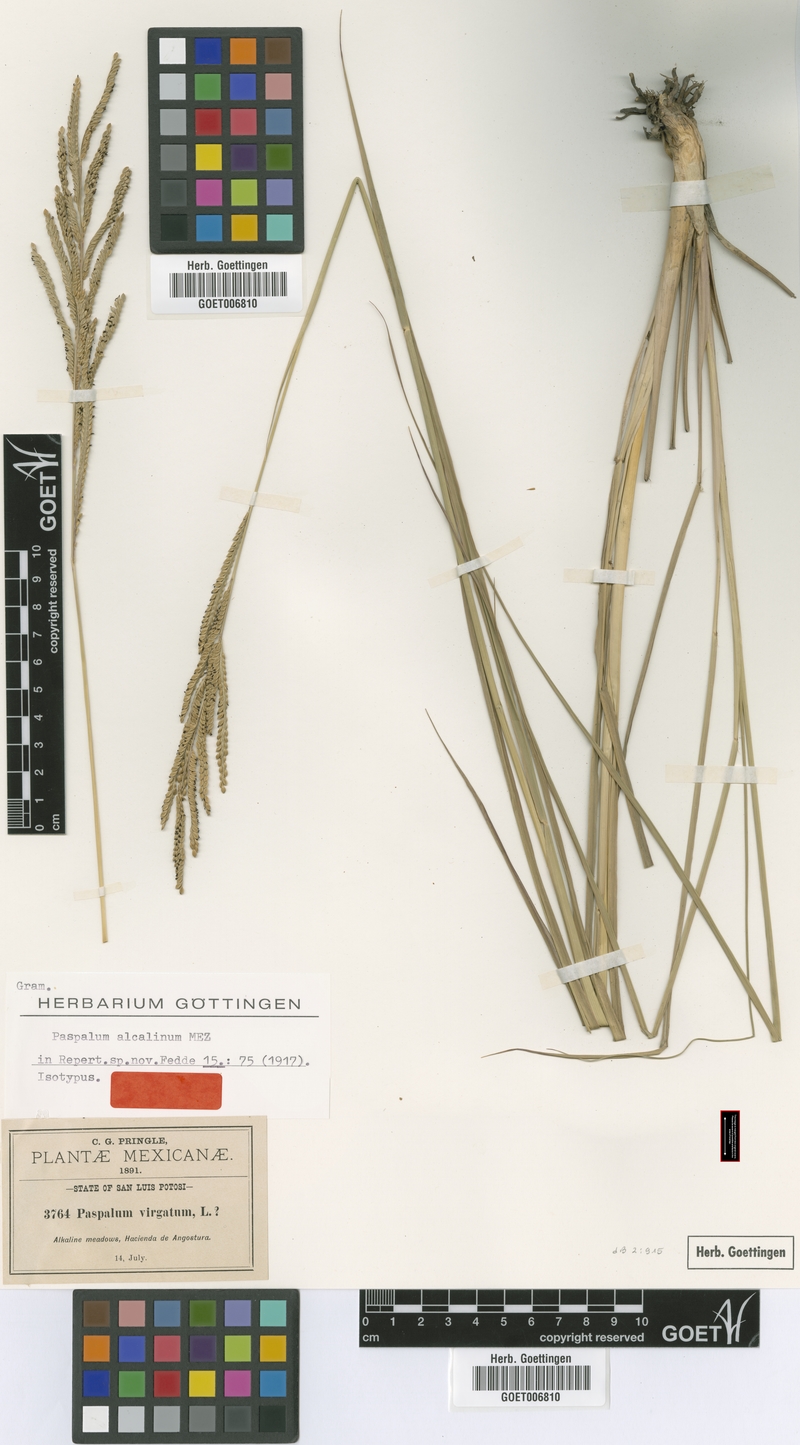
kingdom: Plantae
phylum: Tracheophyta
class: Liliopsida
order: Poales
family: Poaceae
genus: Paspalum
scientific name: Paspalum alcalinum
